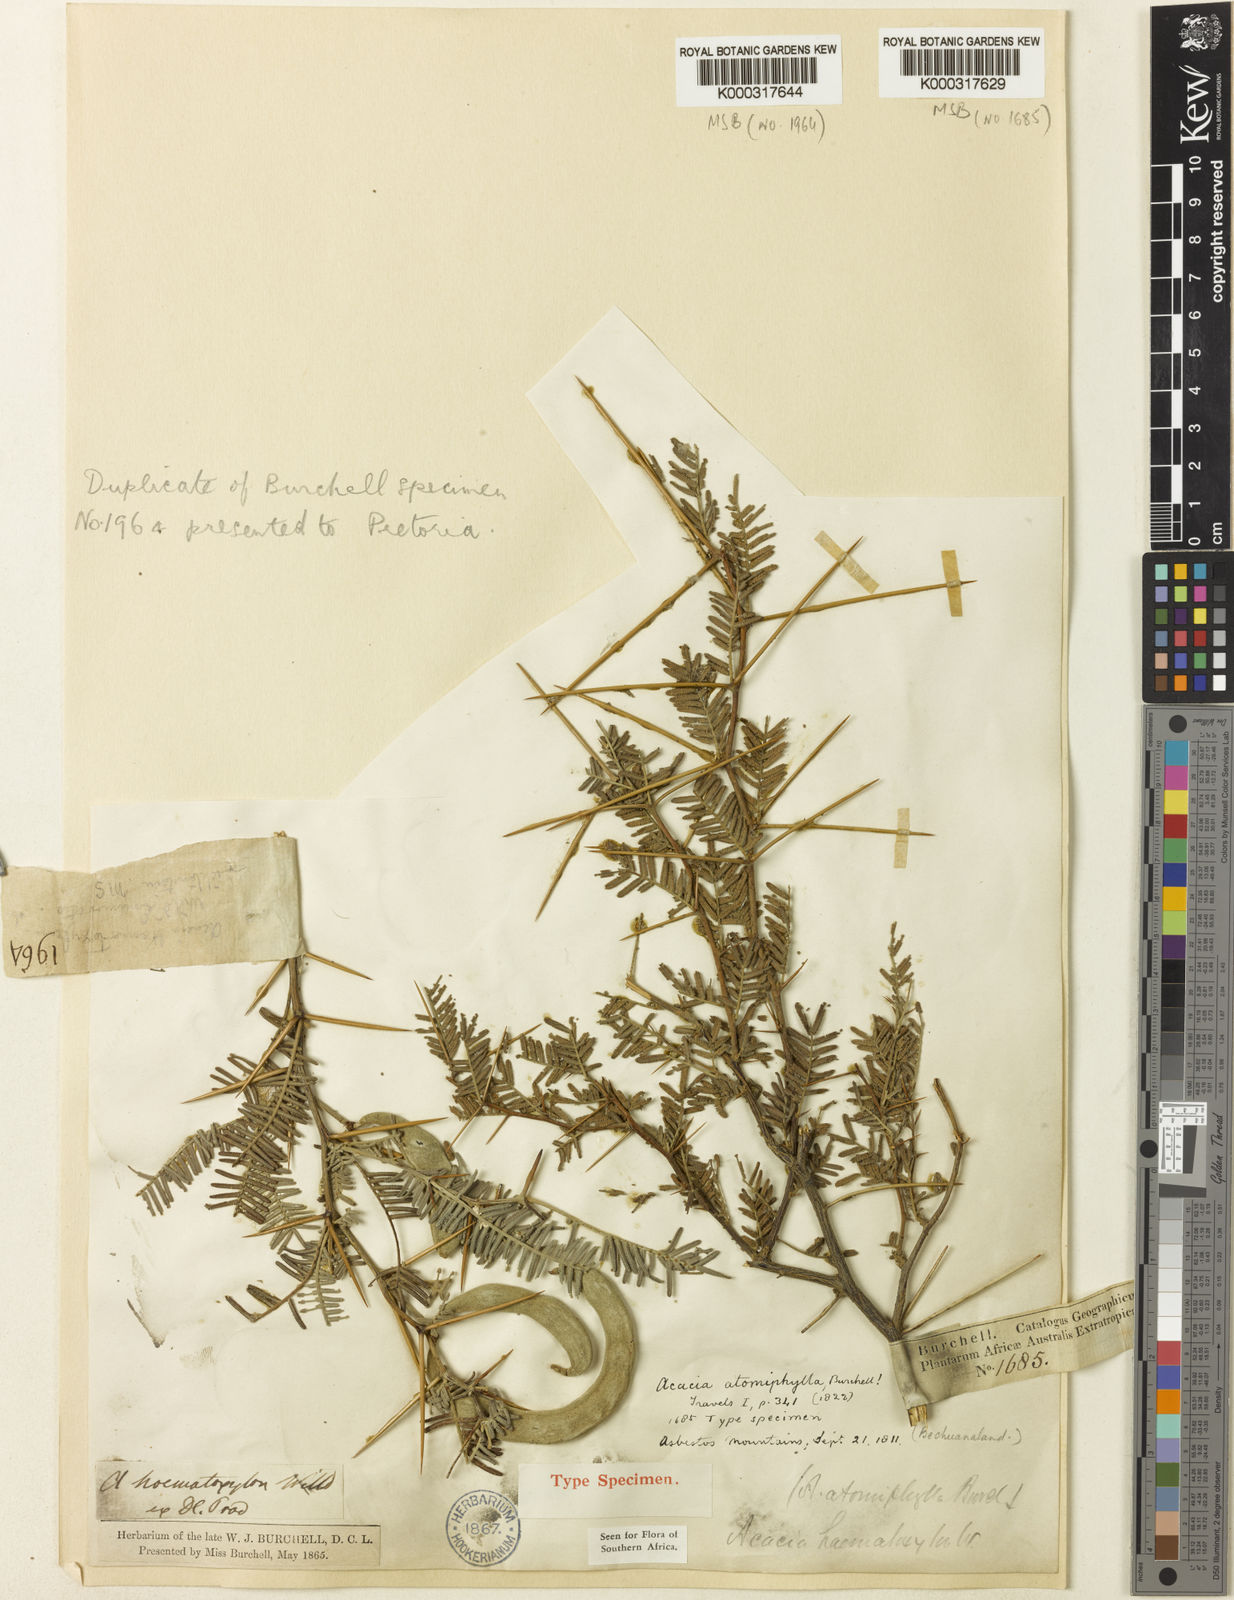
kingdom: Plantae
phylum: Tracheophyta
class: Magnoliopsida
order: Fabales
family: Fabaceae
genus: Vachellia
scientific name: Vachellia haematoxylon
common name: Grey camel thorn
